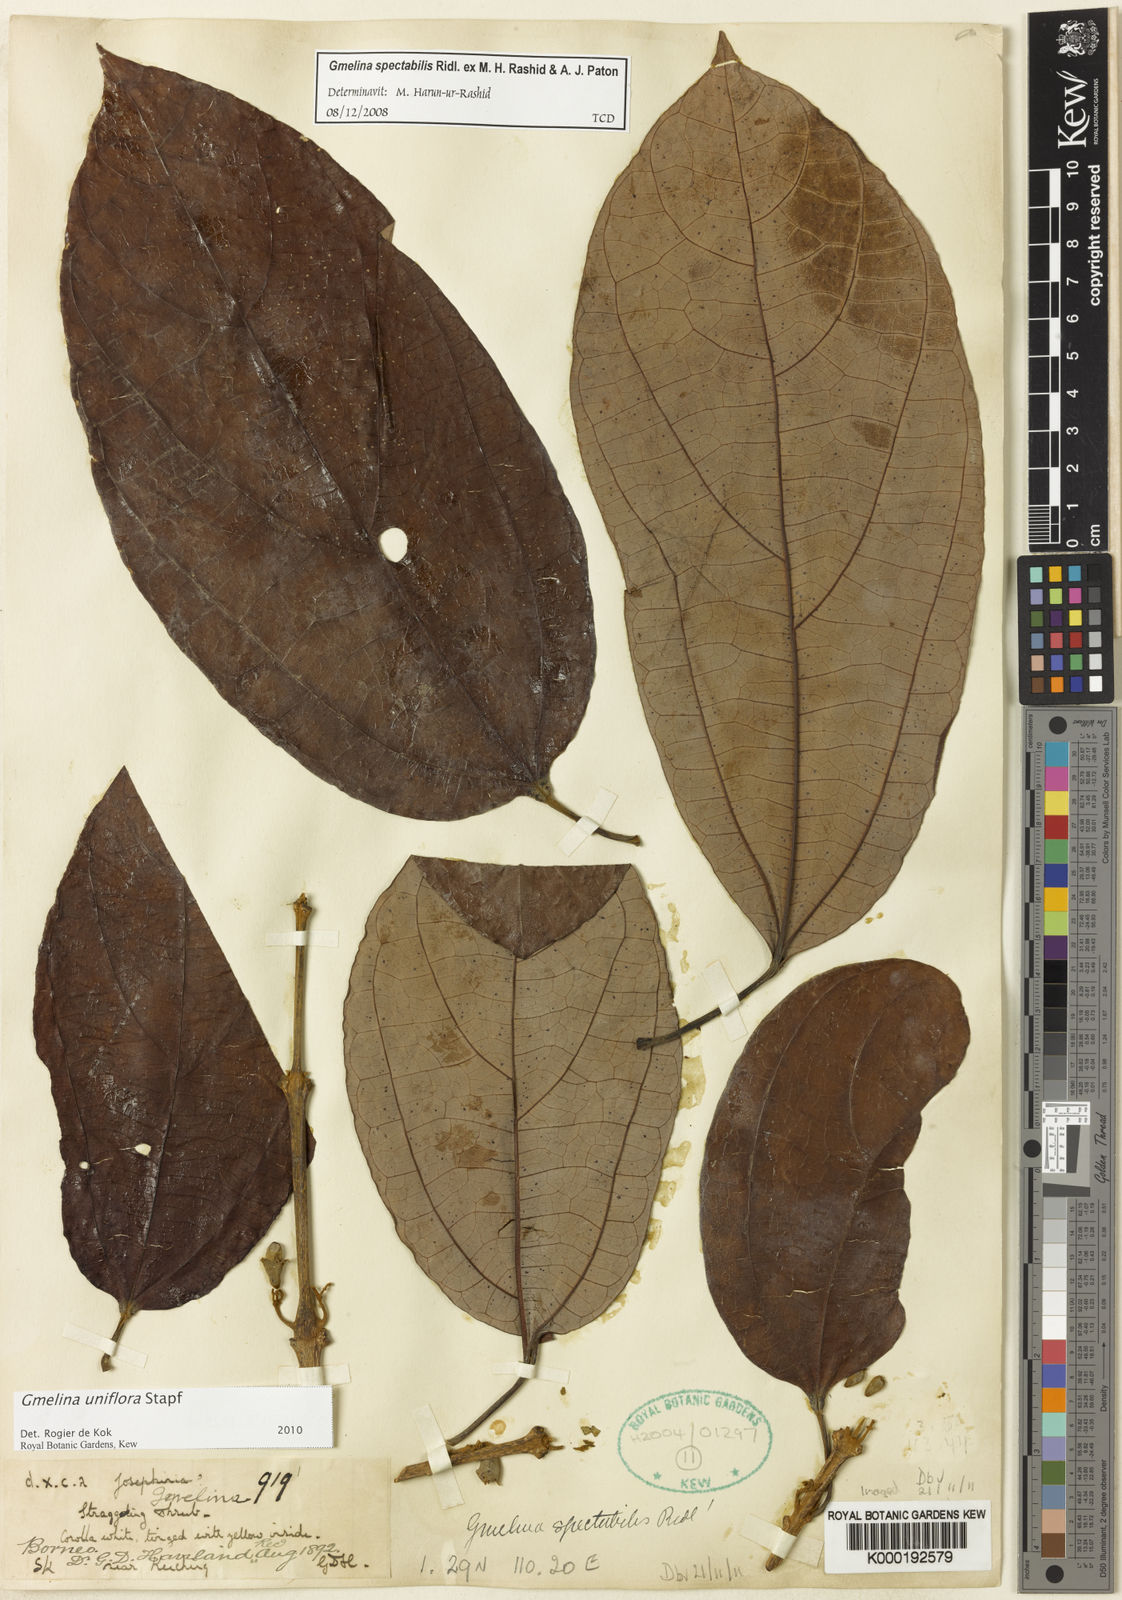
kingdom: Plantae
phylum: Tracheophyta
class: Magnoliopsida
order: Lamiales
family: Lamiaceae
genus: Gmelina
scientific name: Gmelina uniflora
